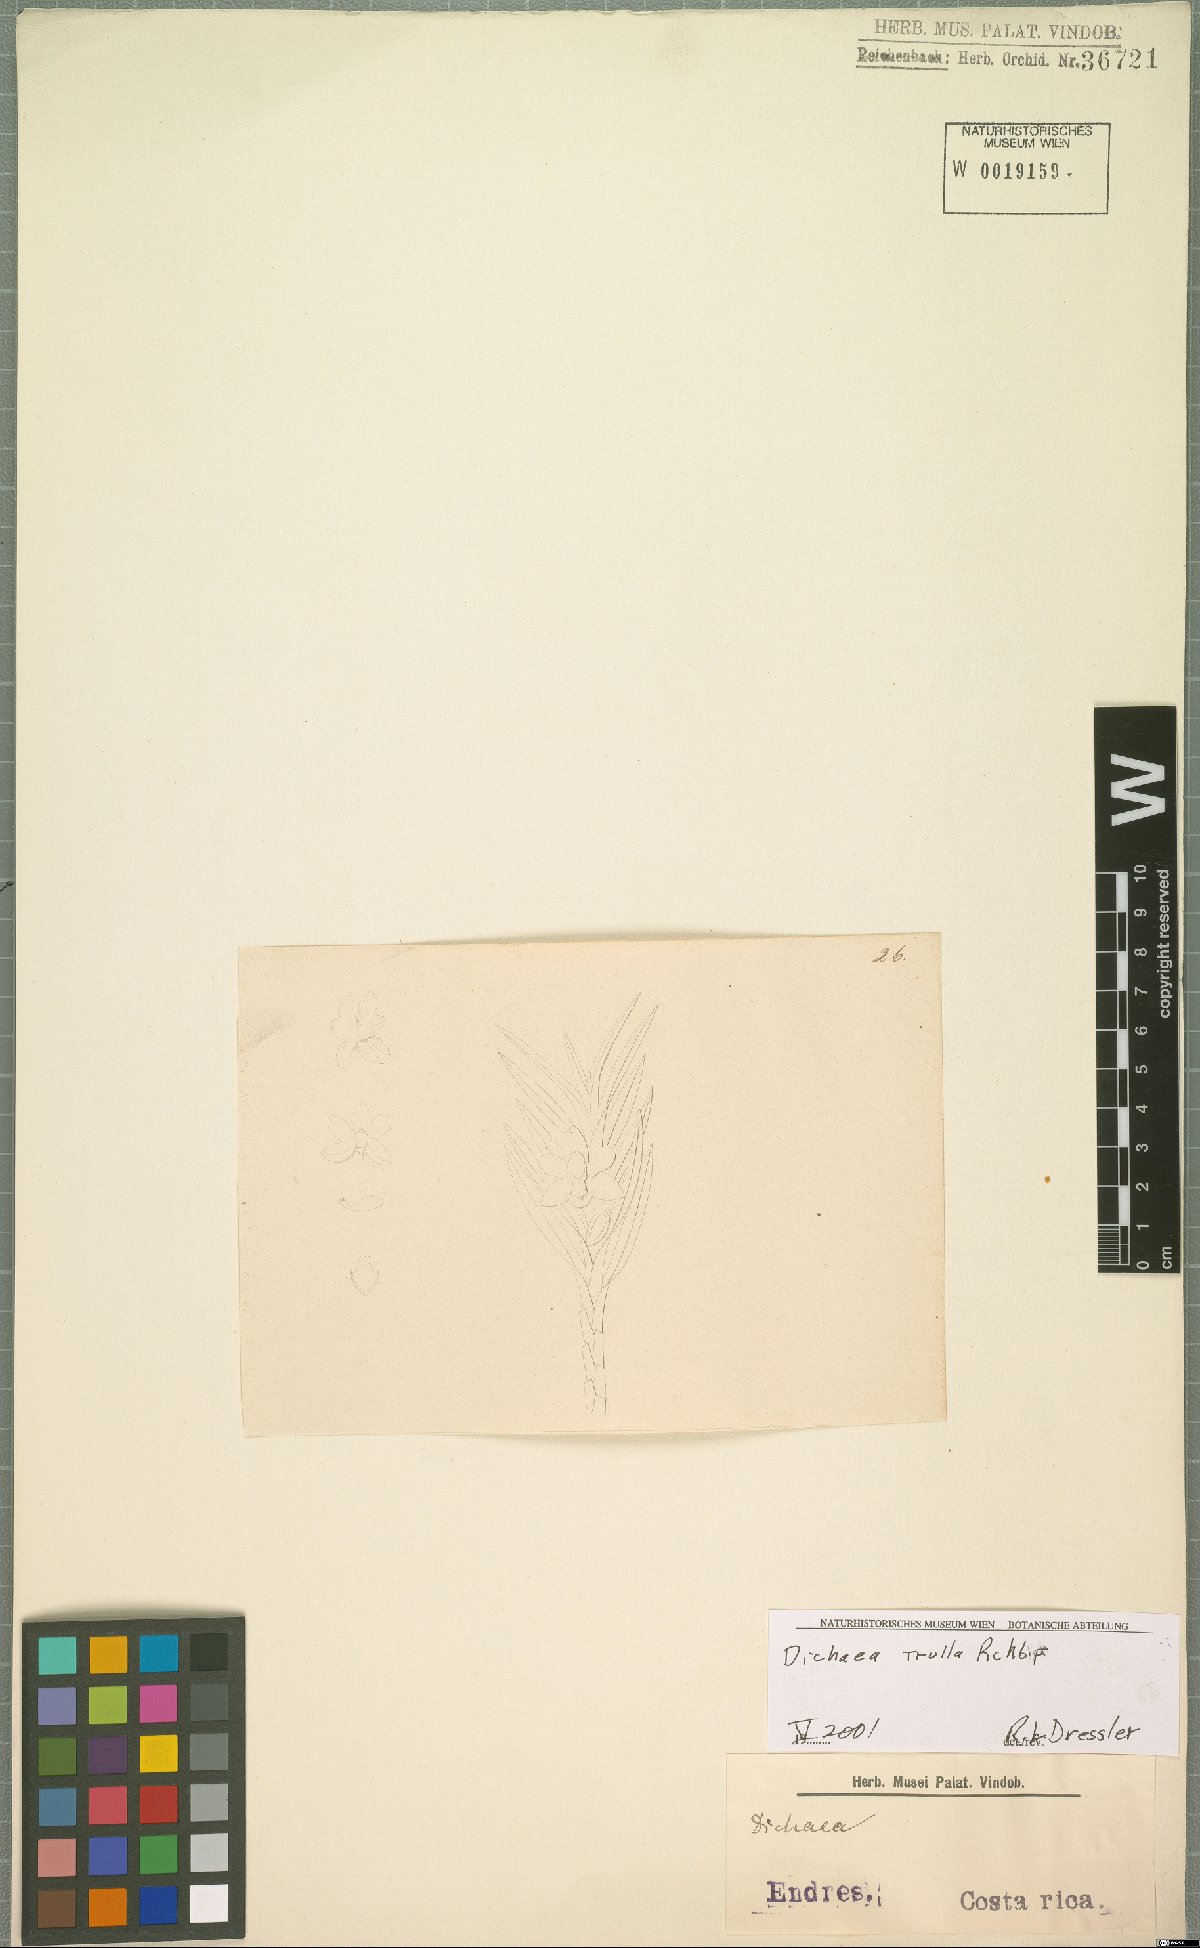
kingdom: Plantae
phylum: Tracheophyta
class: Liliopsida
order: Asparagales
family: Orchidaceae
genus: Dichaea
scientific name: Dichaea trulla
